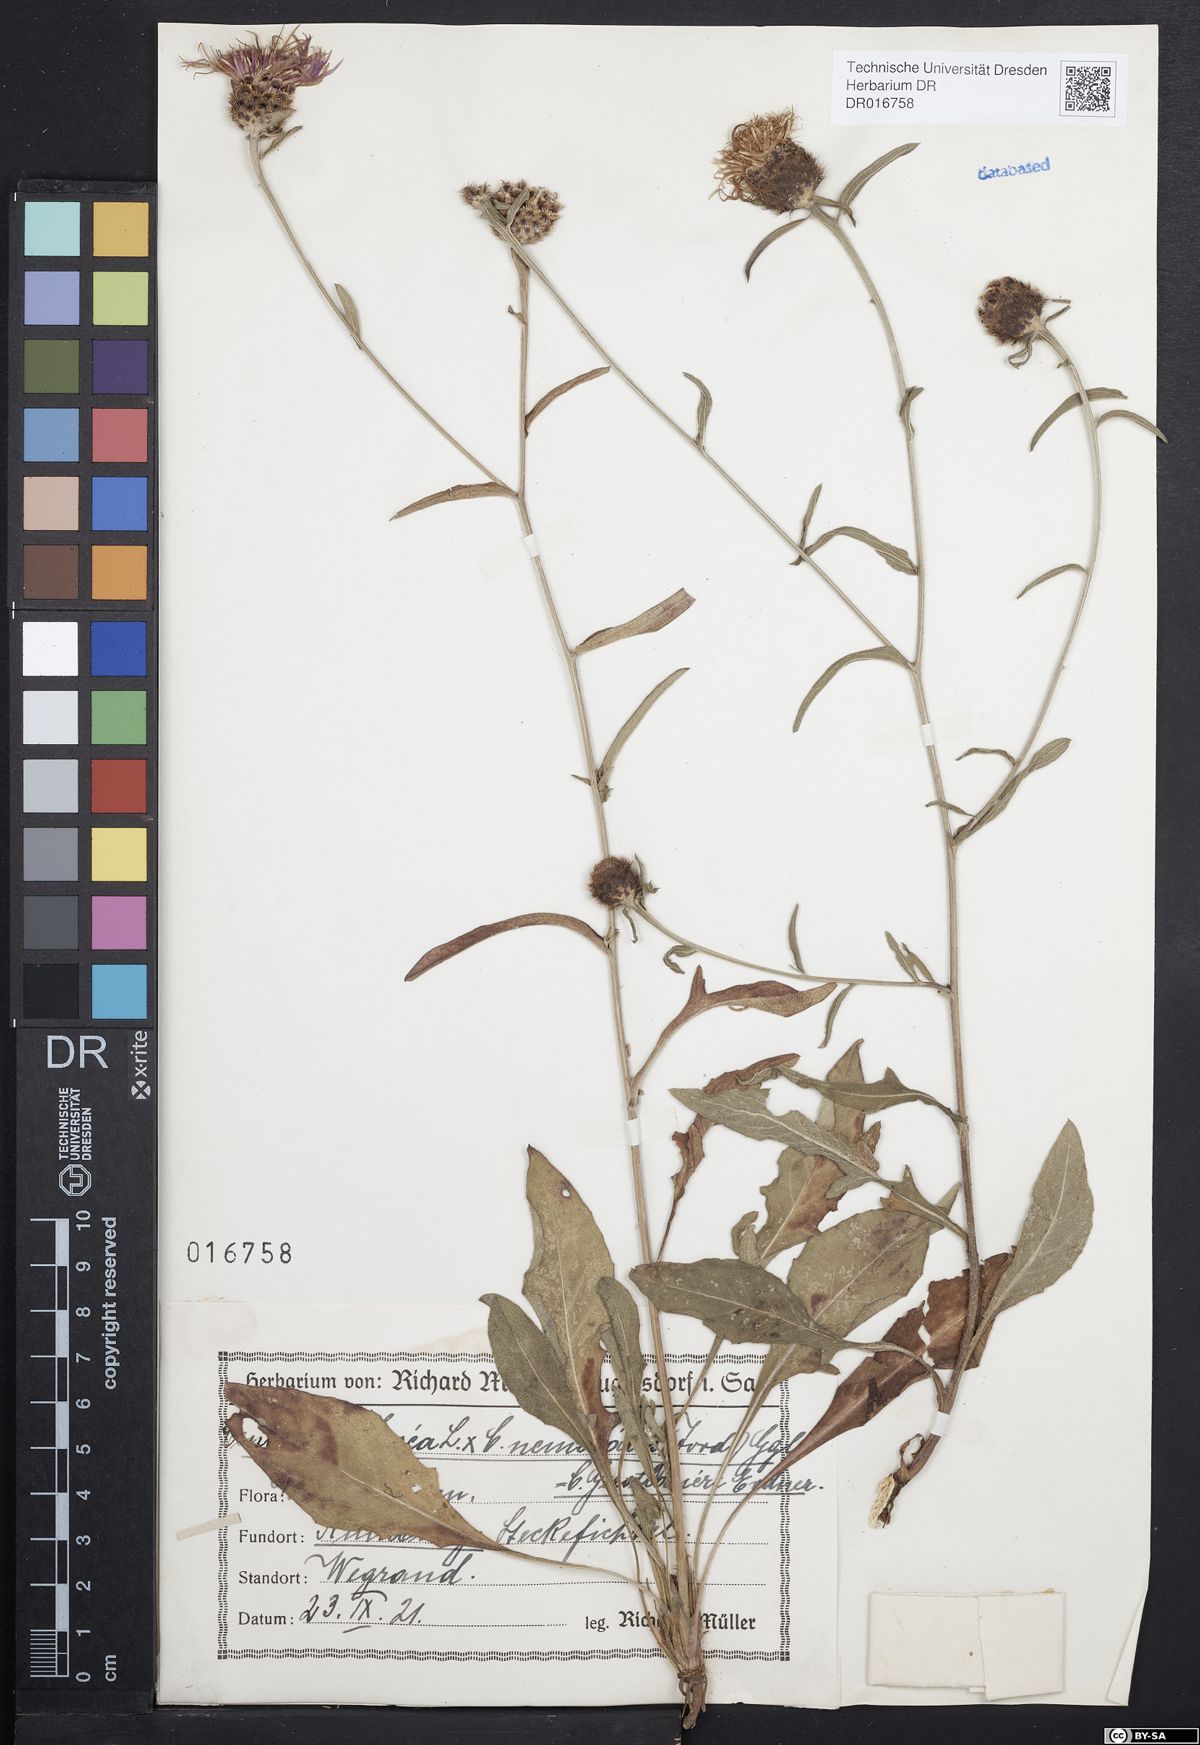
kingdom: Plantae
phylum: Tracheophyta
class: Magnoliopsida
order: Asterales
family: Asteraceae
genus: Centaurea
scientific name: Centaurea jacea
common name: Brown knapweed
